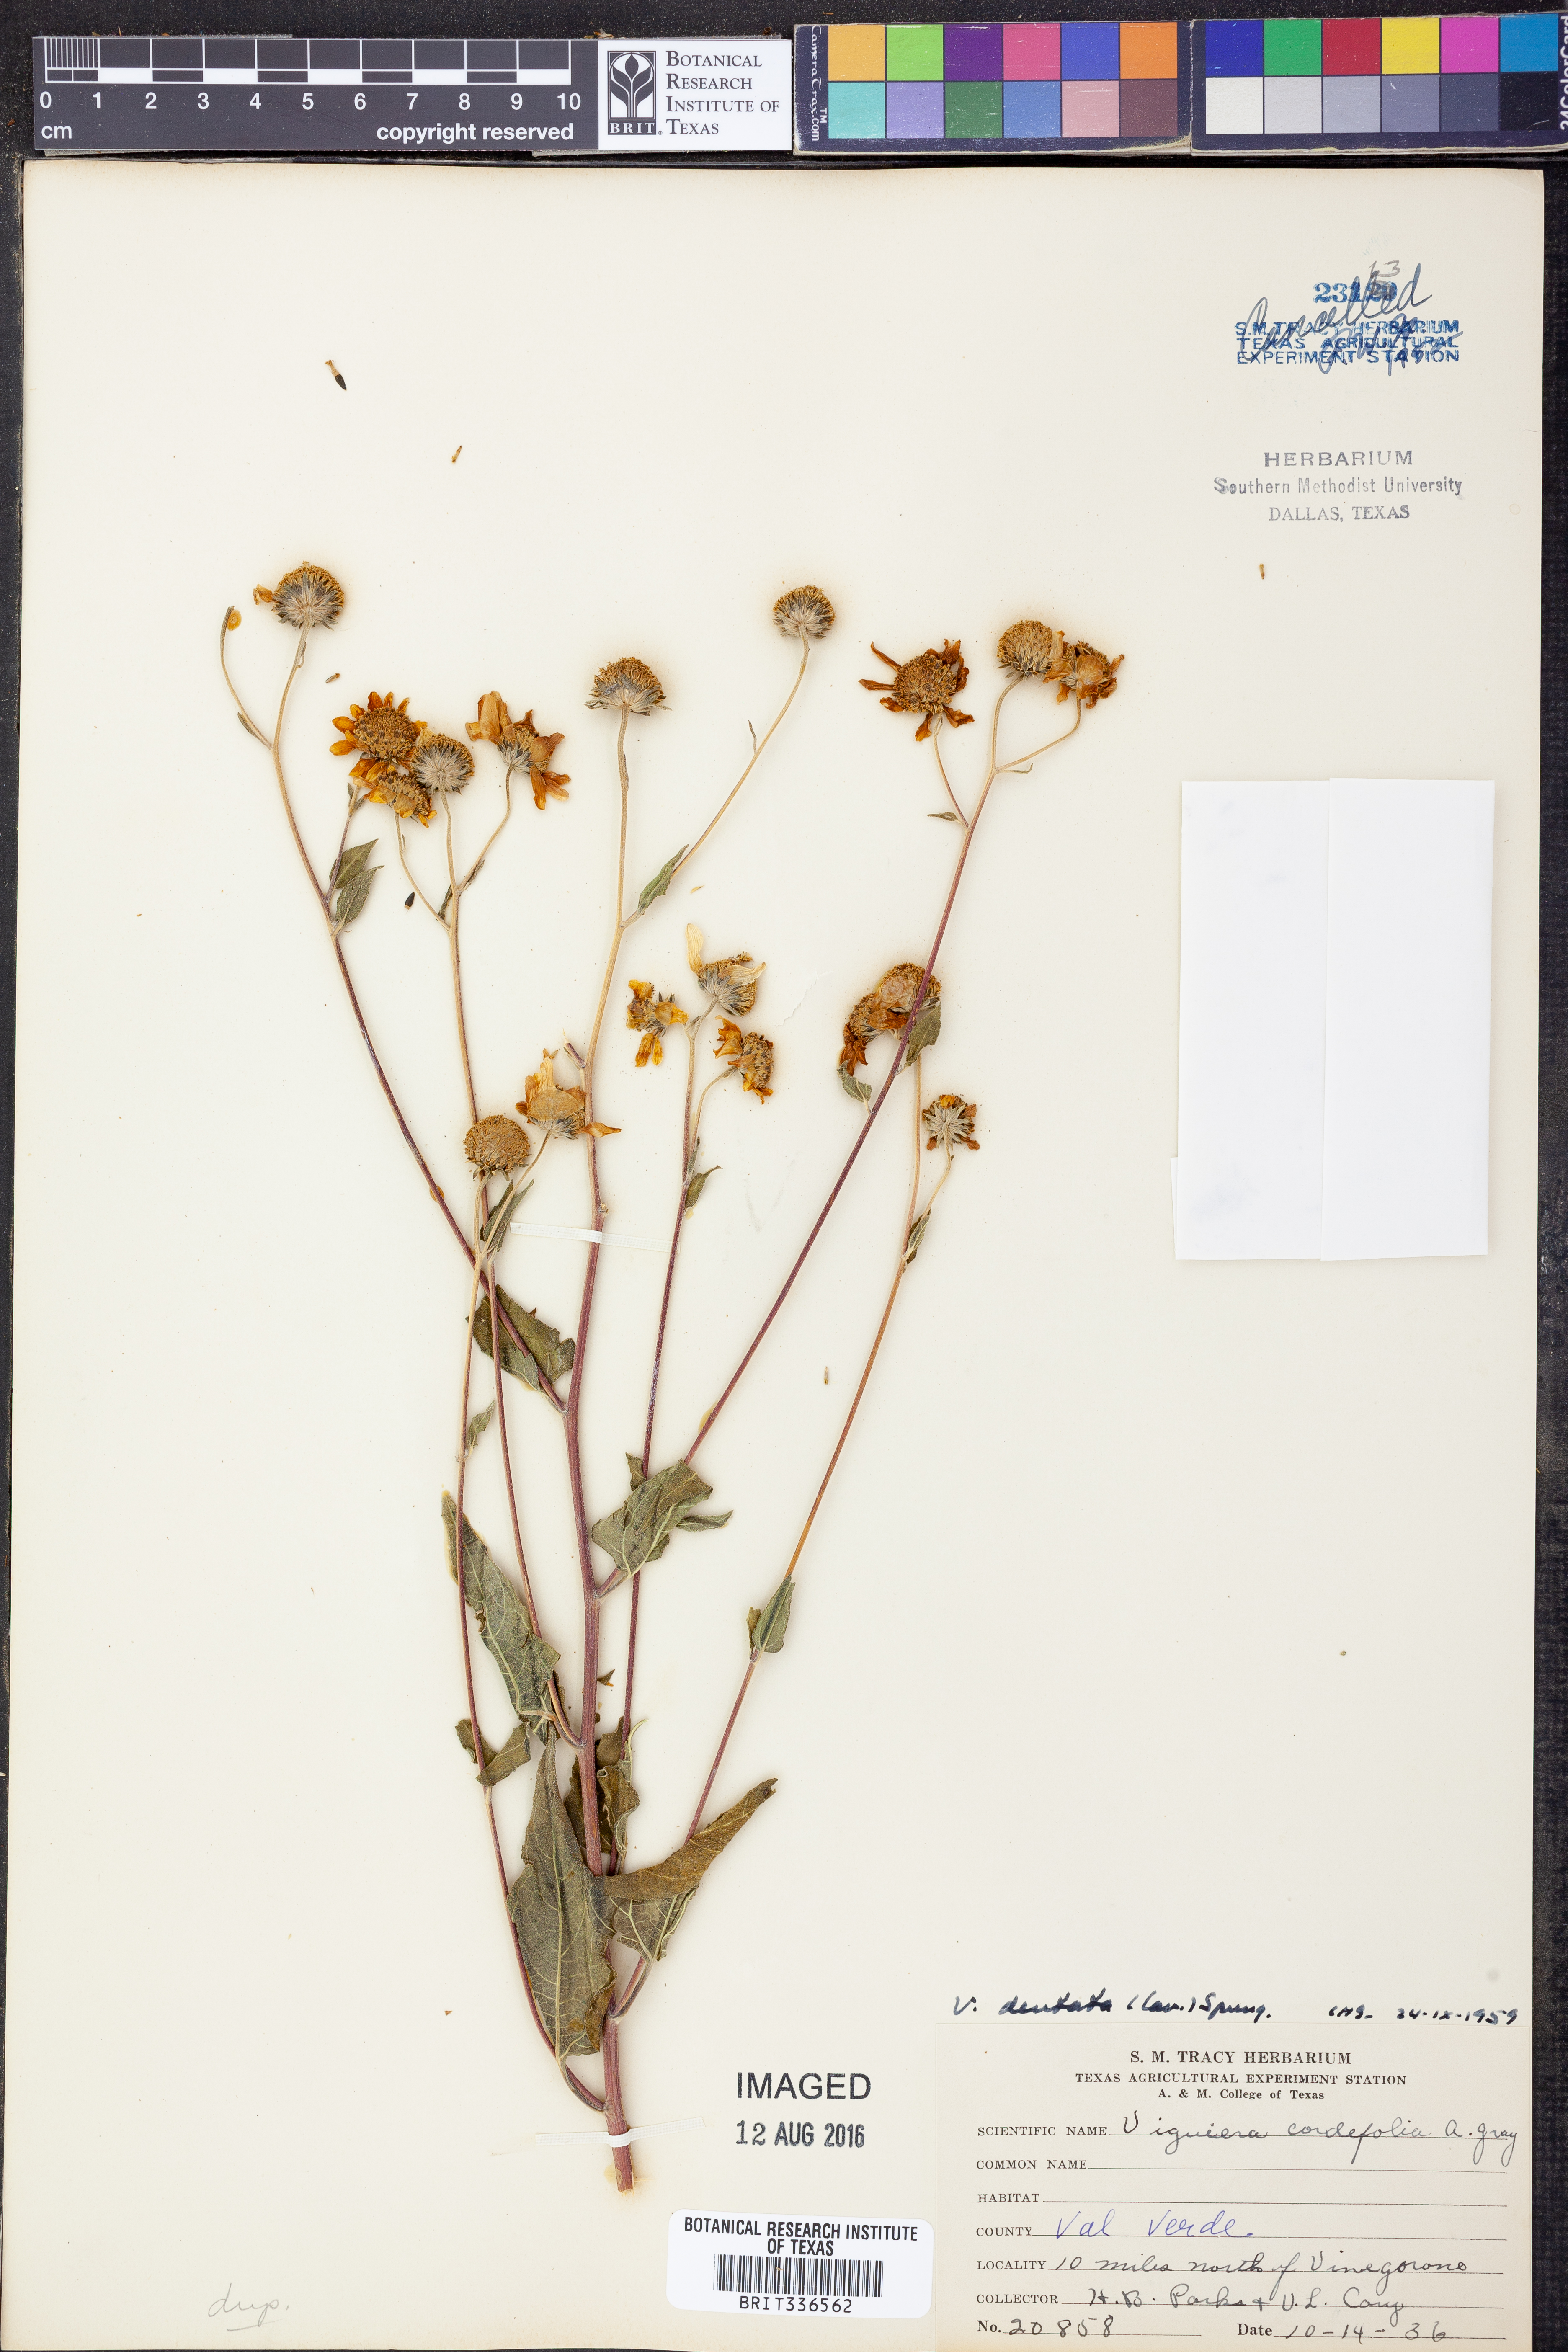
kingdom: Plantae
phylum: Tracheophyta
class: Magnoliopsida
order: Asterales
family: Asteraceae
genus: Viguiera
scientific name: Viguiera dentata
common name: Toothleaf
